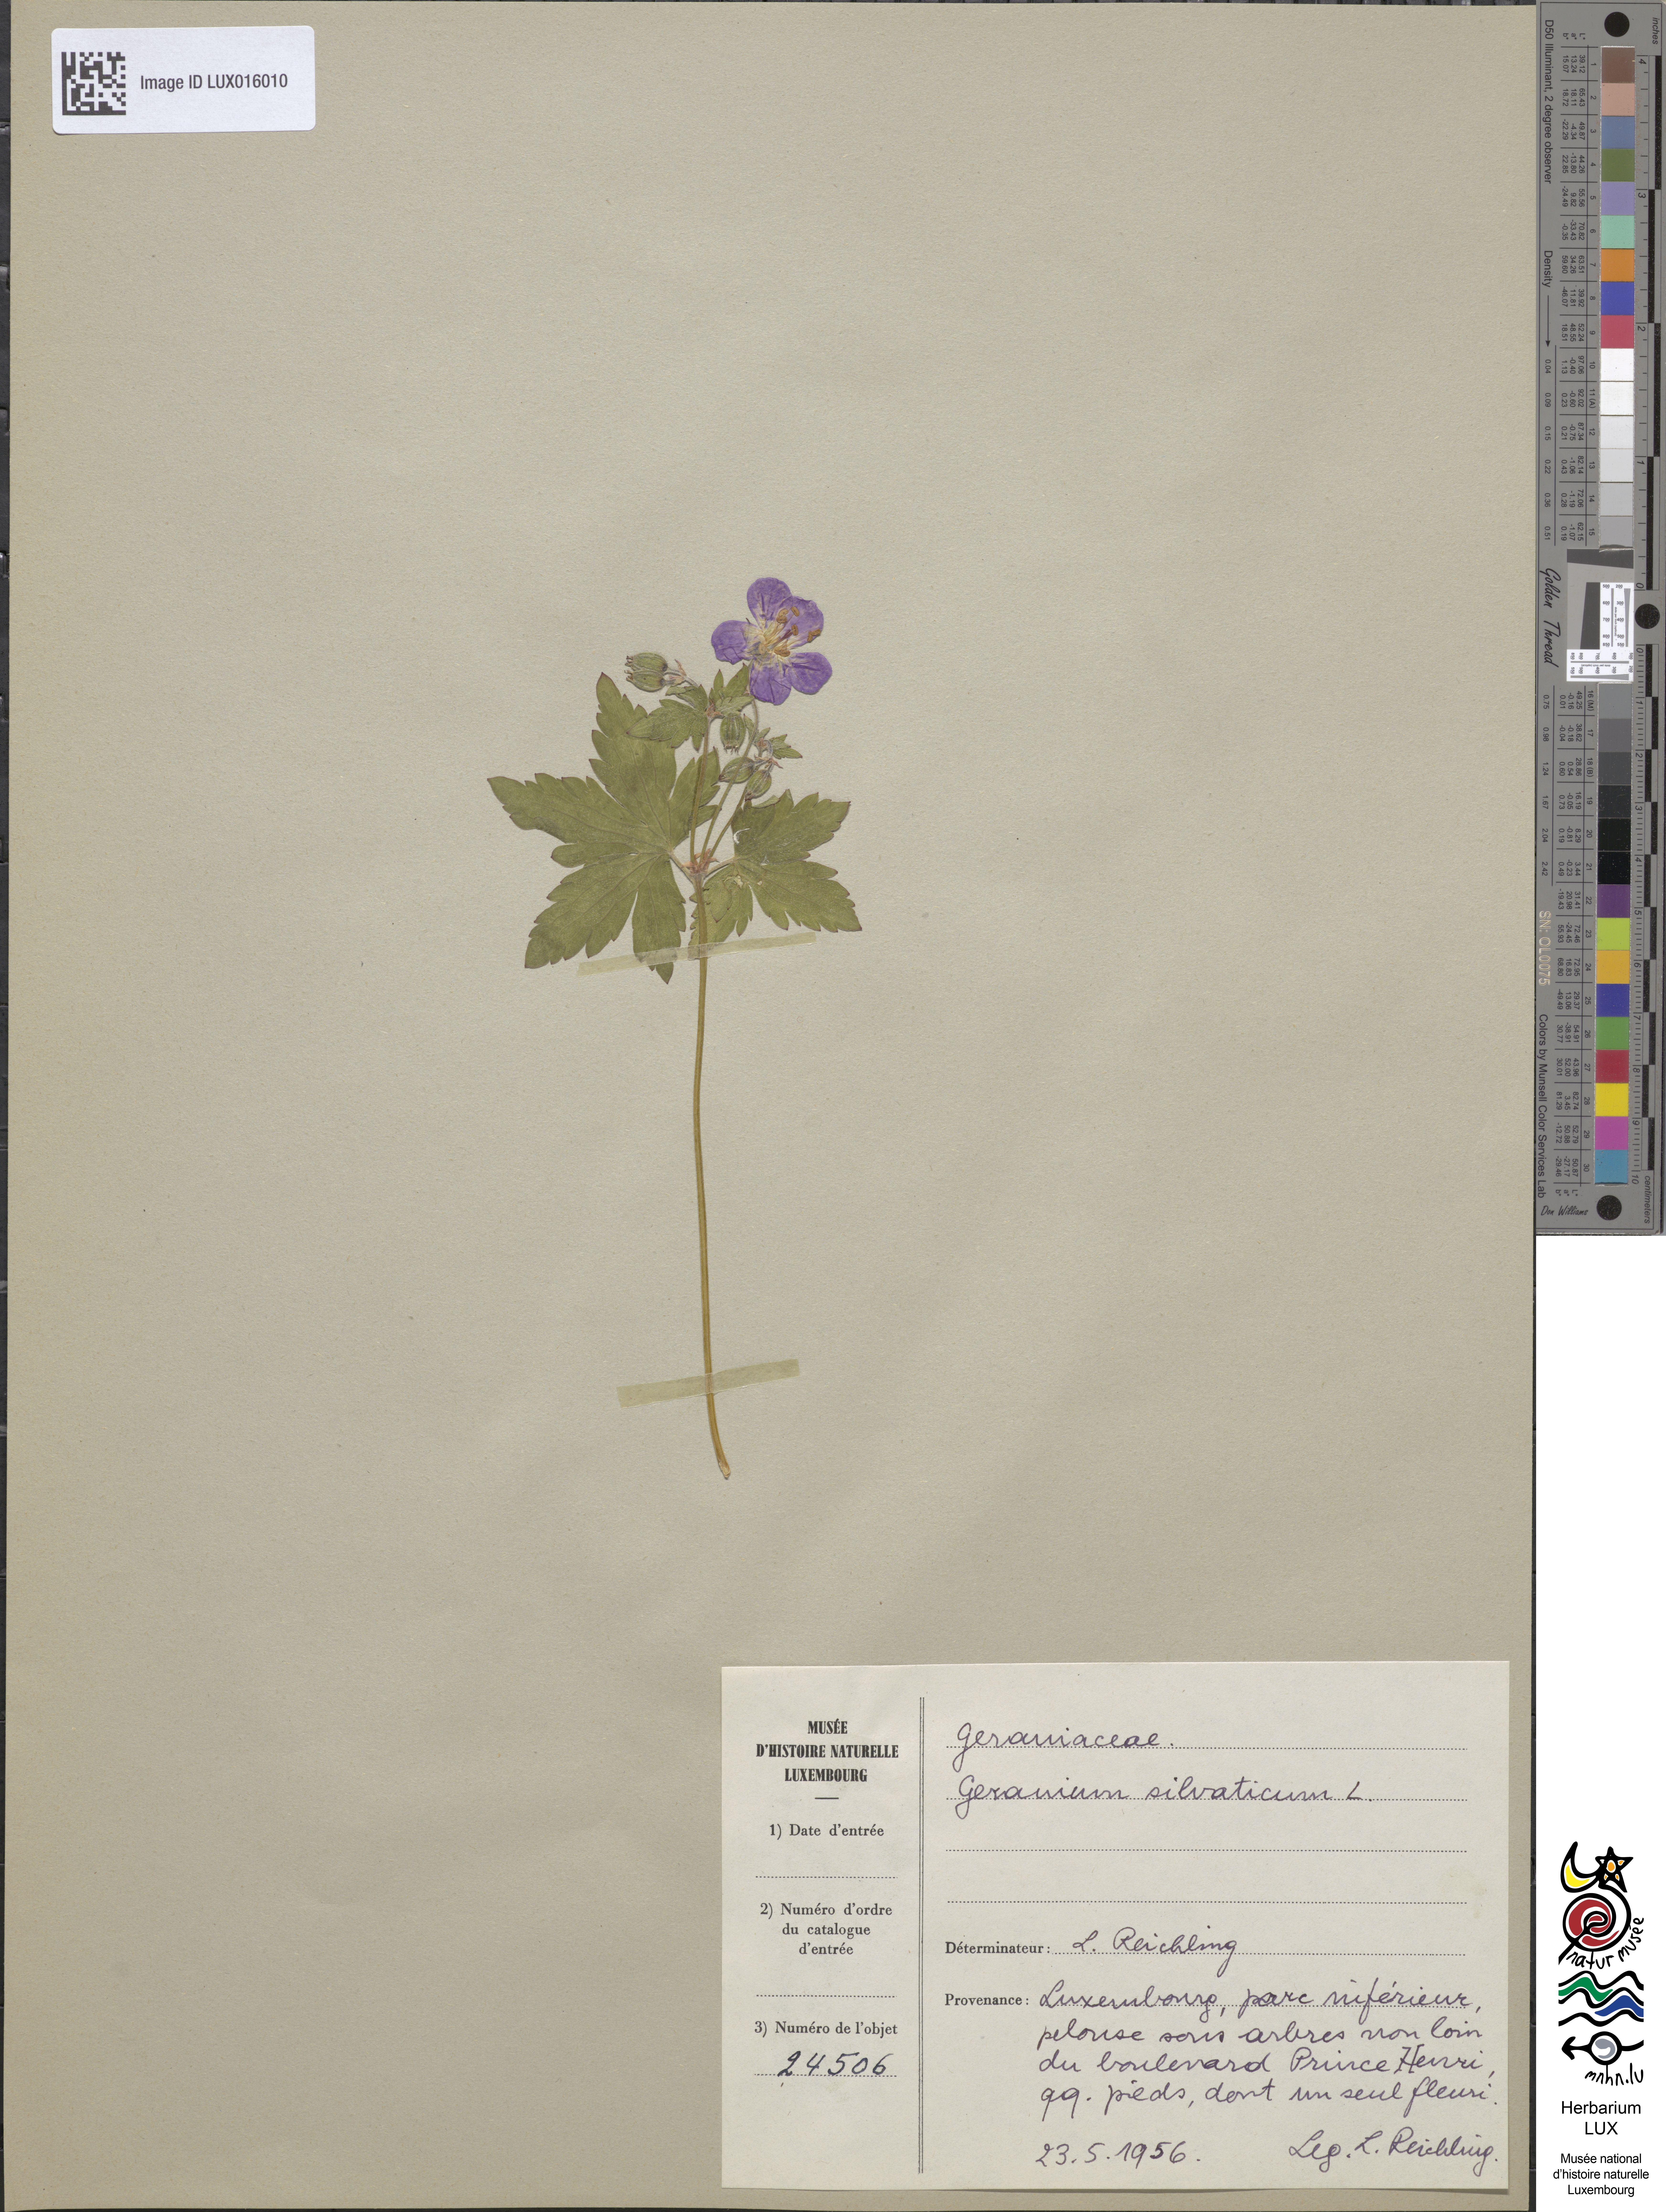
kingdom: Plantae
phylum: Tracheophyta
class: Magnoliopsida
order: Geraniales
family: Geraniaceae
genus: Geranium
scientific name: Geranium sylvaticum
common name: Wood crane's-bill
